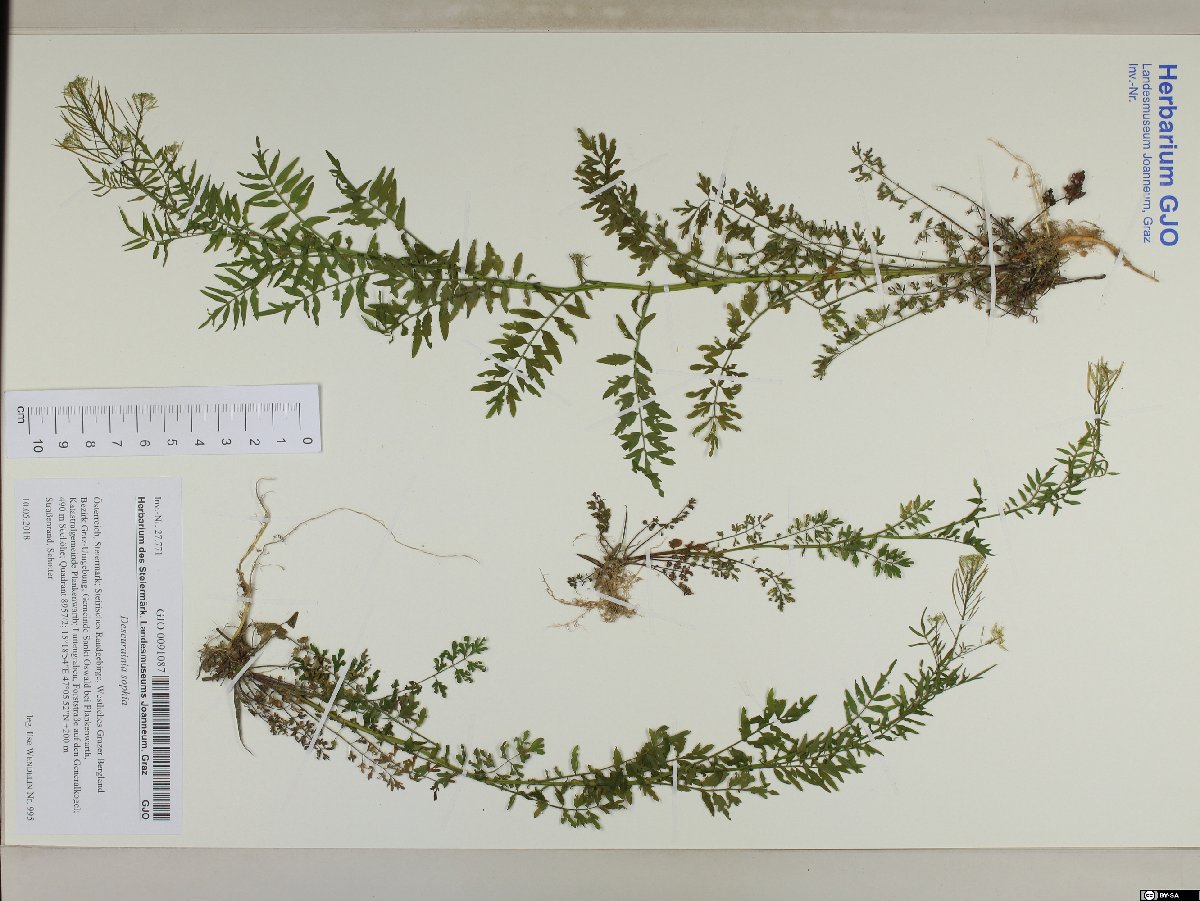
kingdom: Plantae
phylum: Tracheophyta
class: Magnoliopsida
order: Brassicales
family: Brassicaceae
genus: Descurainia
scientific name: Descurainia sophia
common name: Flixweed
